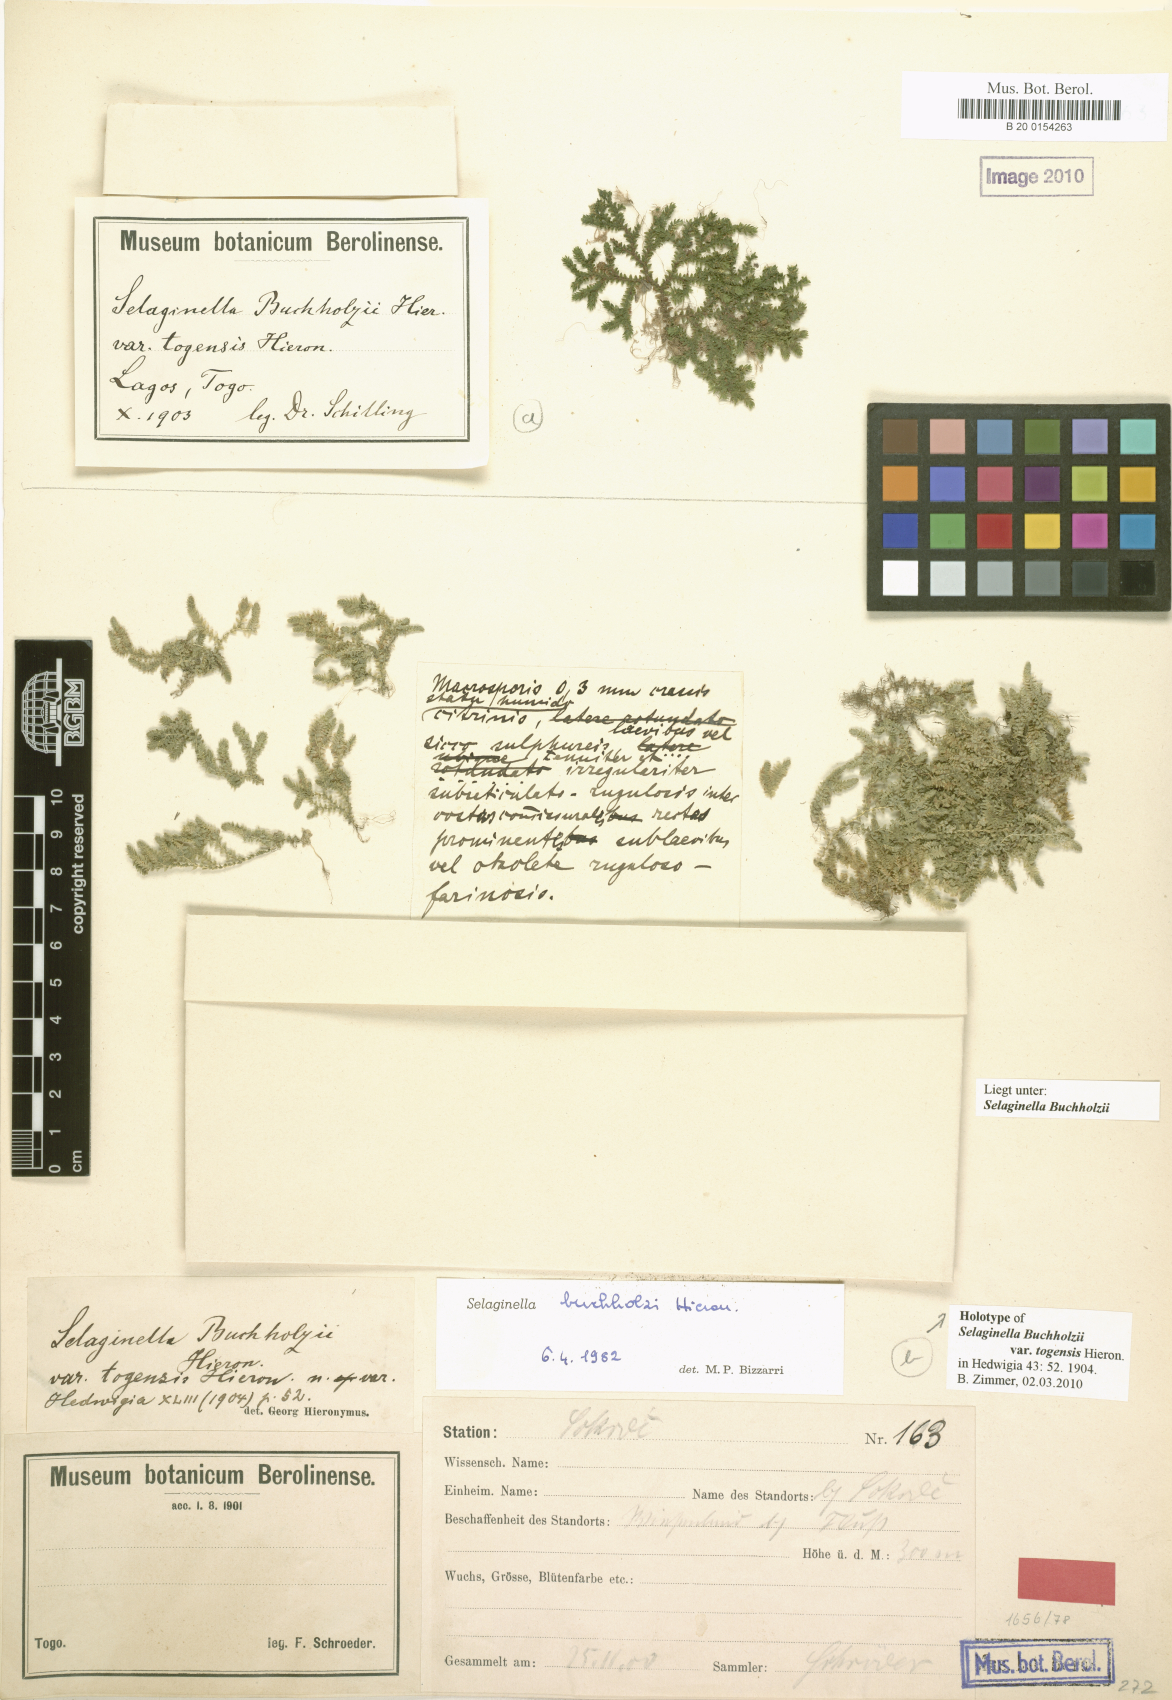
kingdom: Plantae
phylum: Tracheophyta
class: Lycopodiopsida
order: Selaginellales
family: Selaginellaceae
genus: Selaginella
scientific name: Selaginella buchholzii
